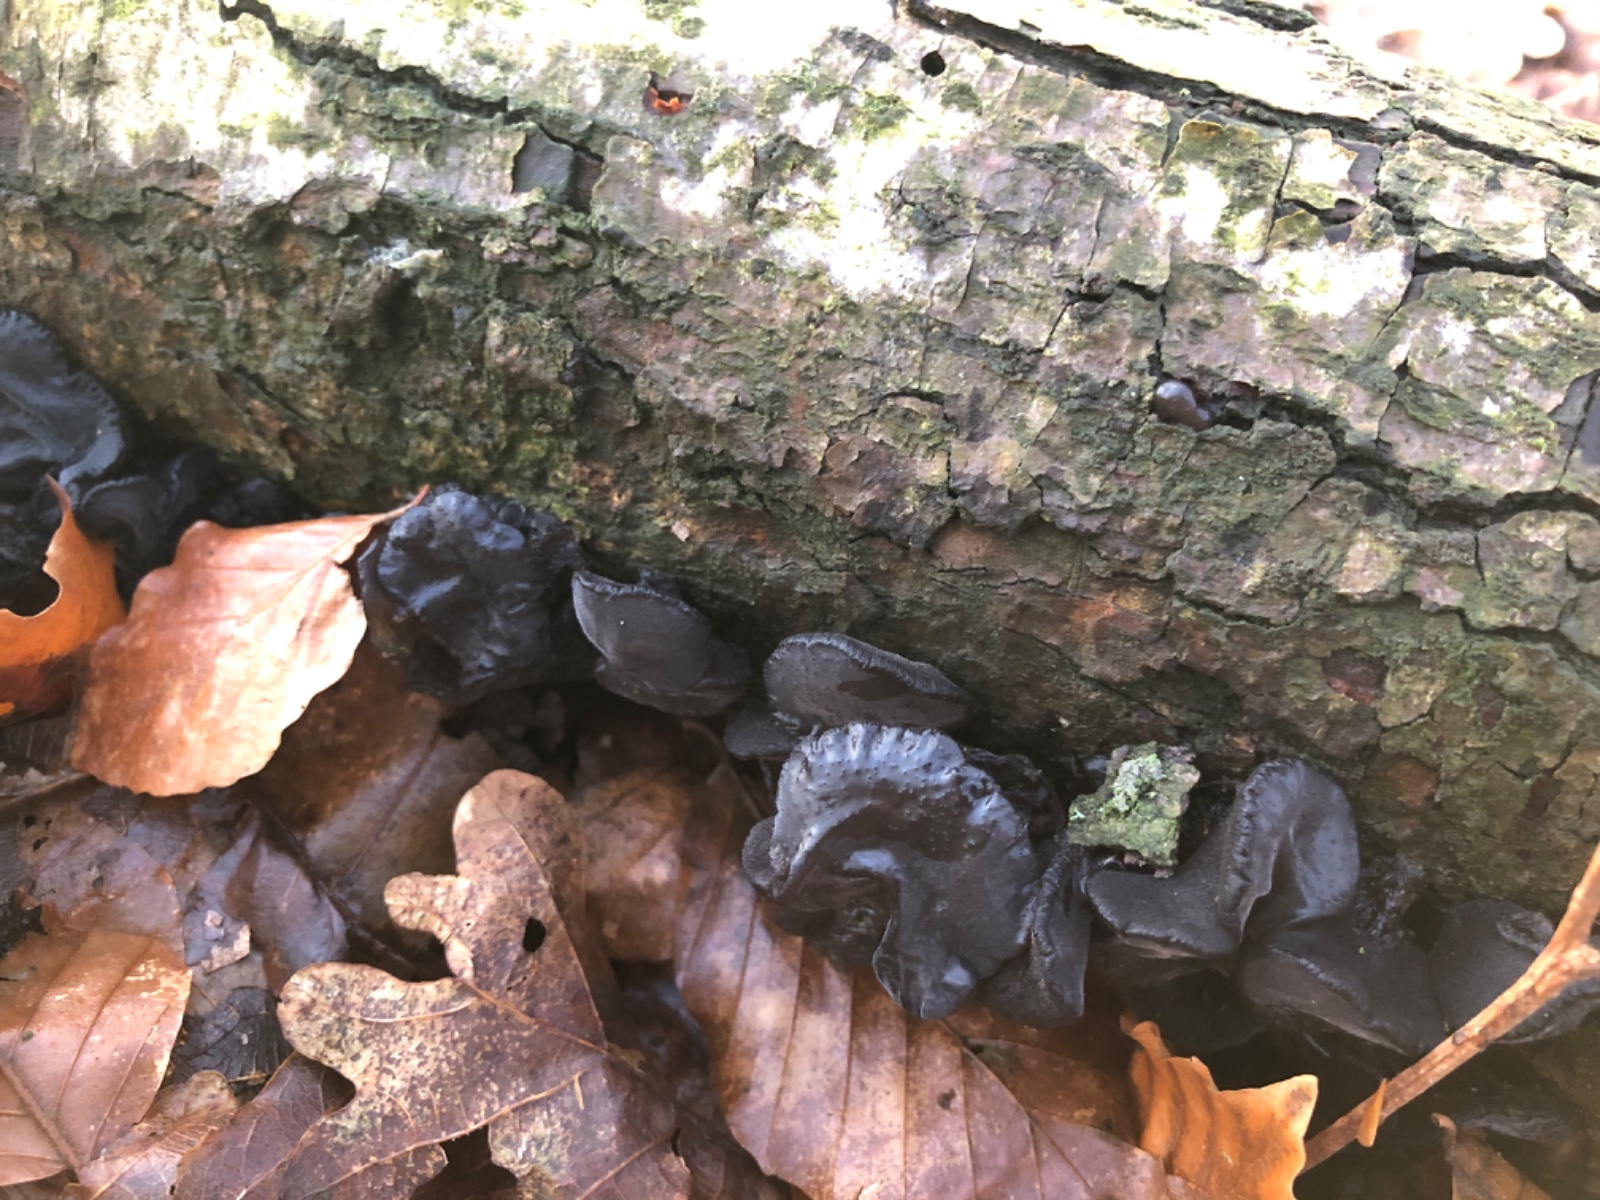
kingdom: Fungi
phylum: Basidiomycota
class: Agaricomycetes
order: Auriculariales
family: Auriculariaceae
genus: Exidia
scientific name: Exidia glandulosa
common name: ege-bævretop
